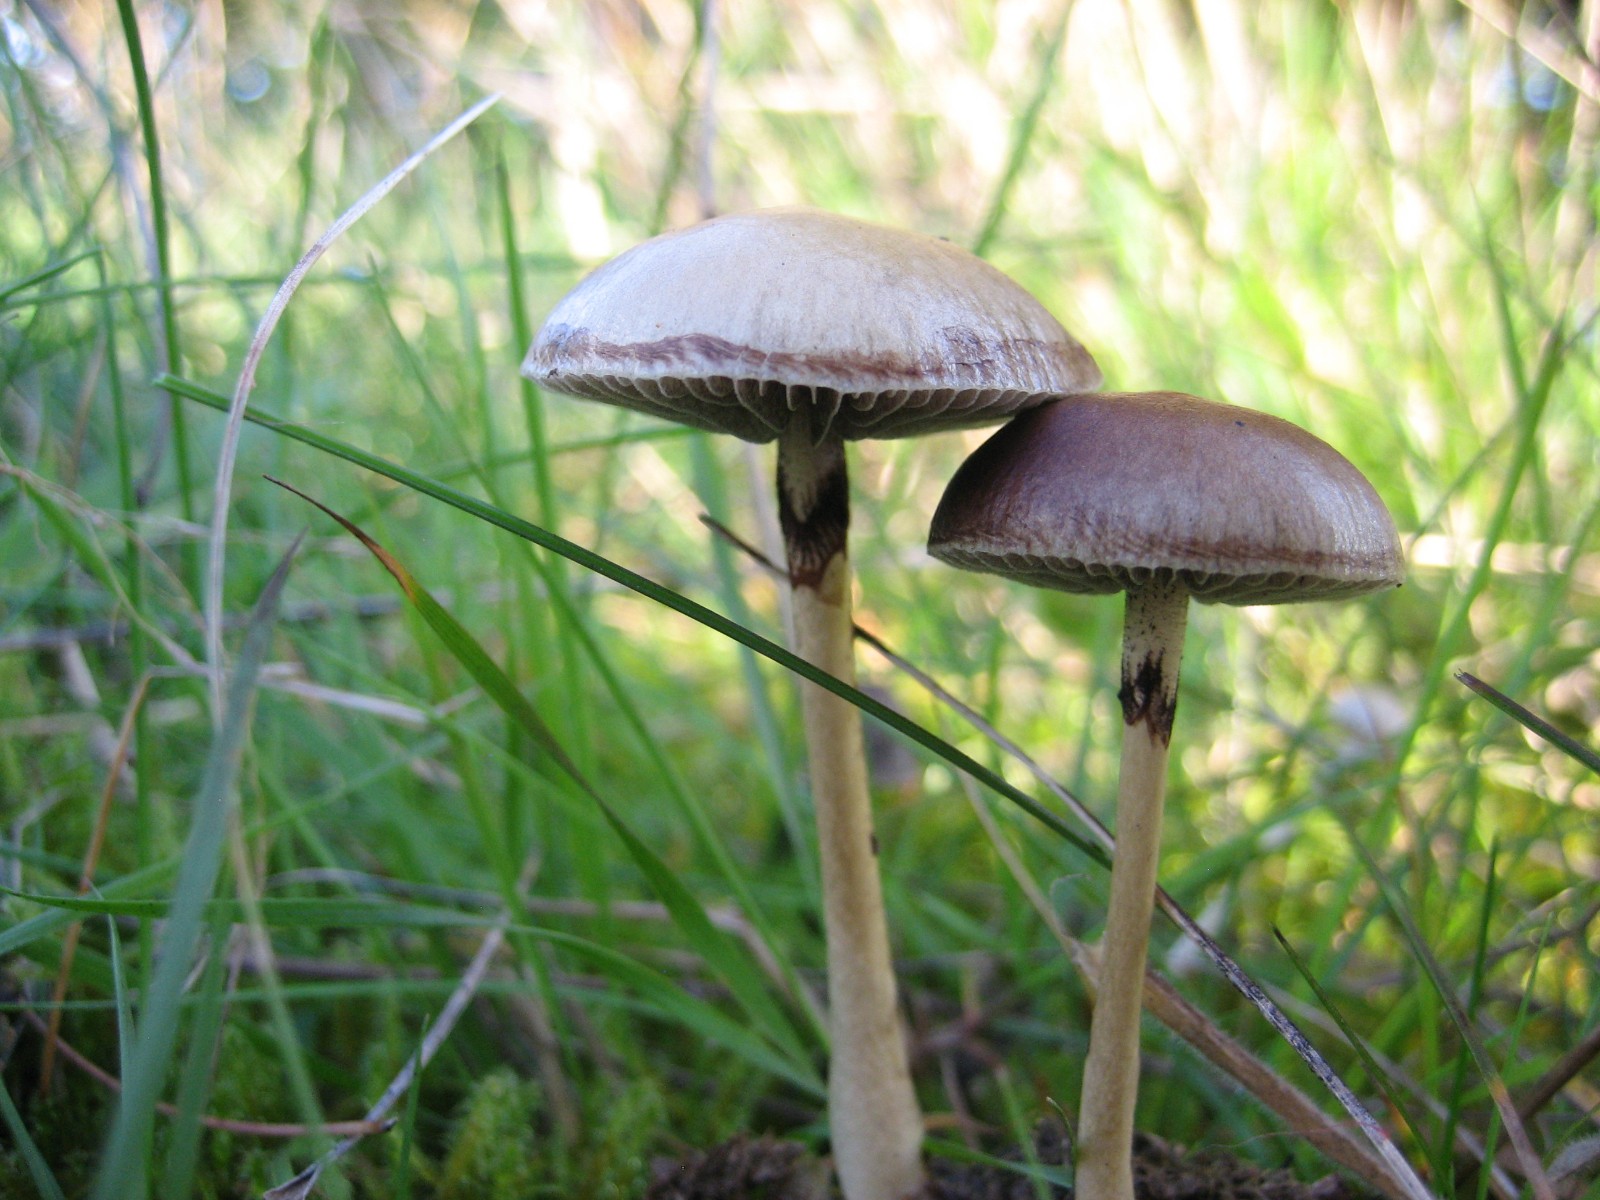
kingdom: Fungi
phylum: Basidiomycota
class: Agaricomycetes
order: Agaricales
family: Strophariaceae
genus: Protostropharia
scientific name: Protostropharia semiglobata
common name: halvkugleformet bredblad
